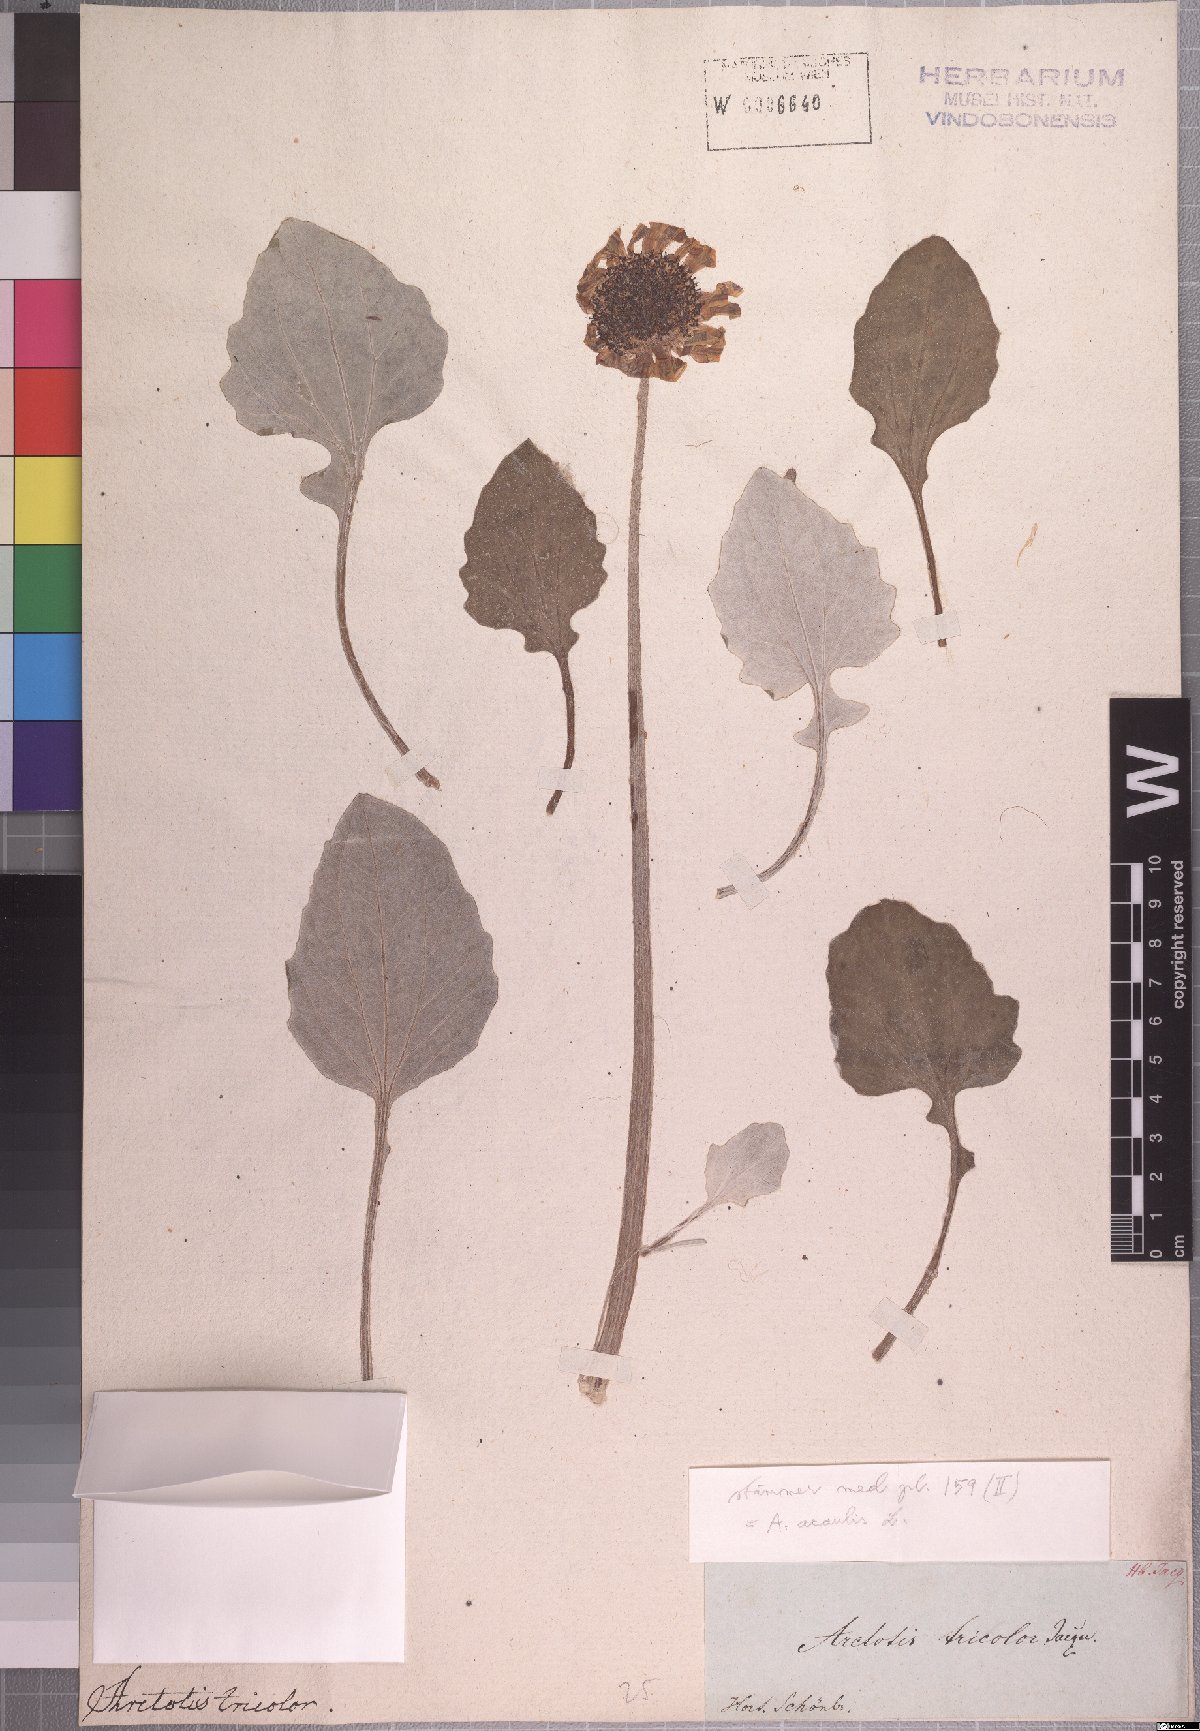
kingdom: Plantae
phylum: Tracheophyta
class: Magnoliopsida
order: Asterales
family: Asteraceae
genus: Arctotis
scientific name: Arctotis tricolor
